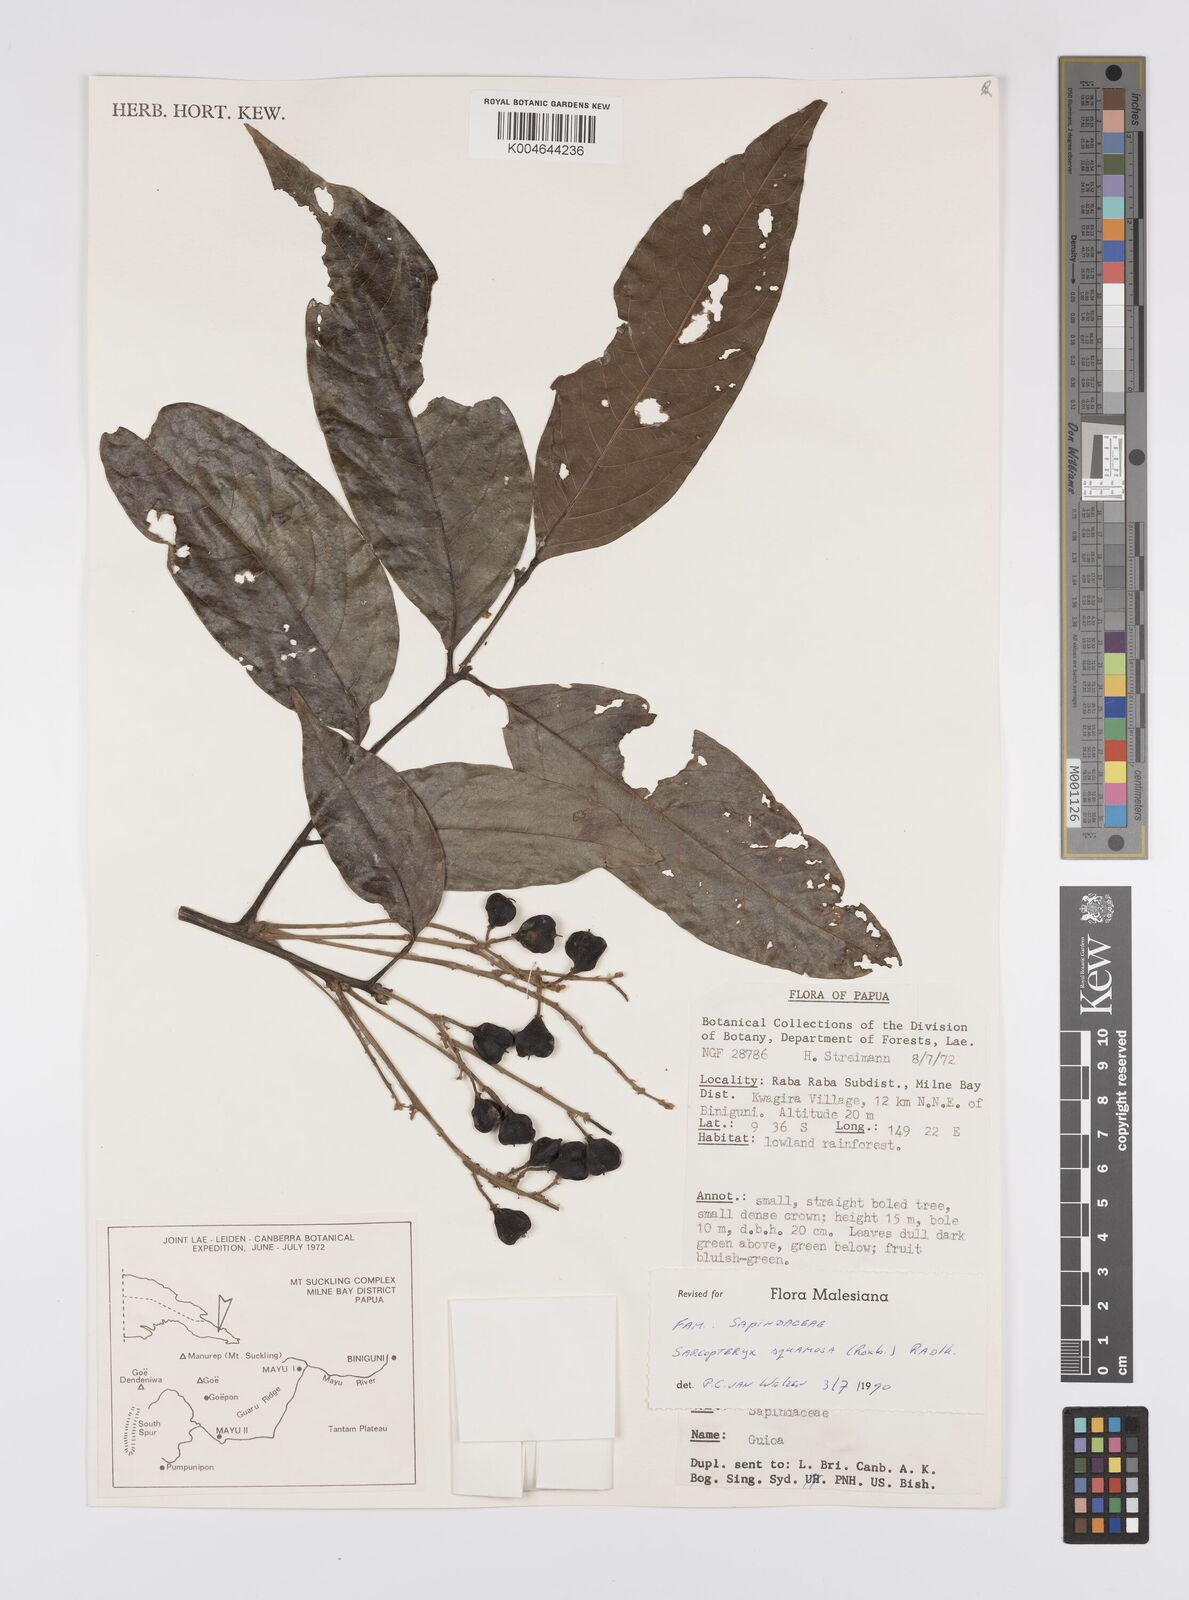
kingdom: Plantae
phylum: Tracheophyta
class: Magnoliopsida
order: Sapindales
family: Sapindaceae
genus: Sarcopteryx
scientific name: Sarcopteryx squamosa
